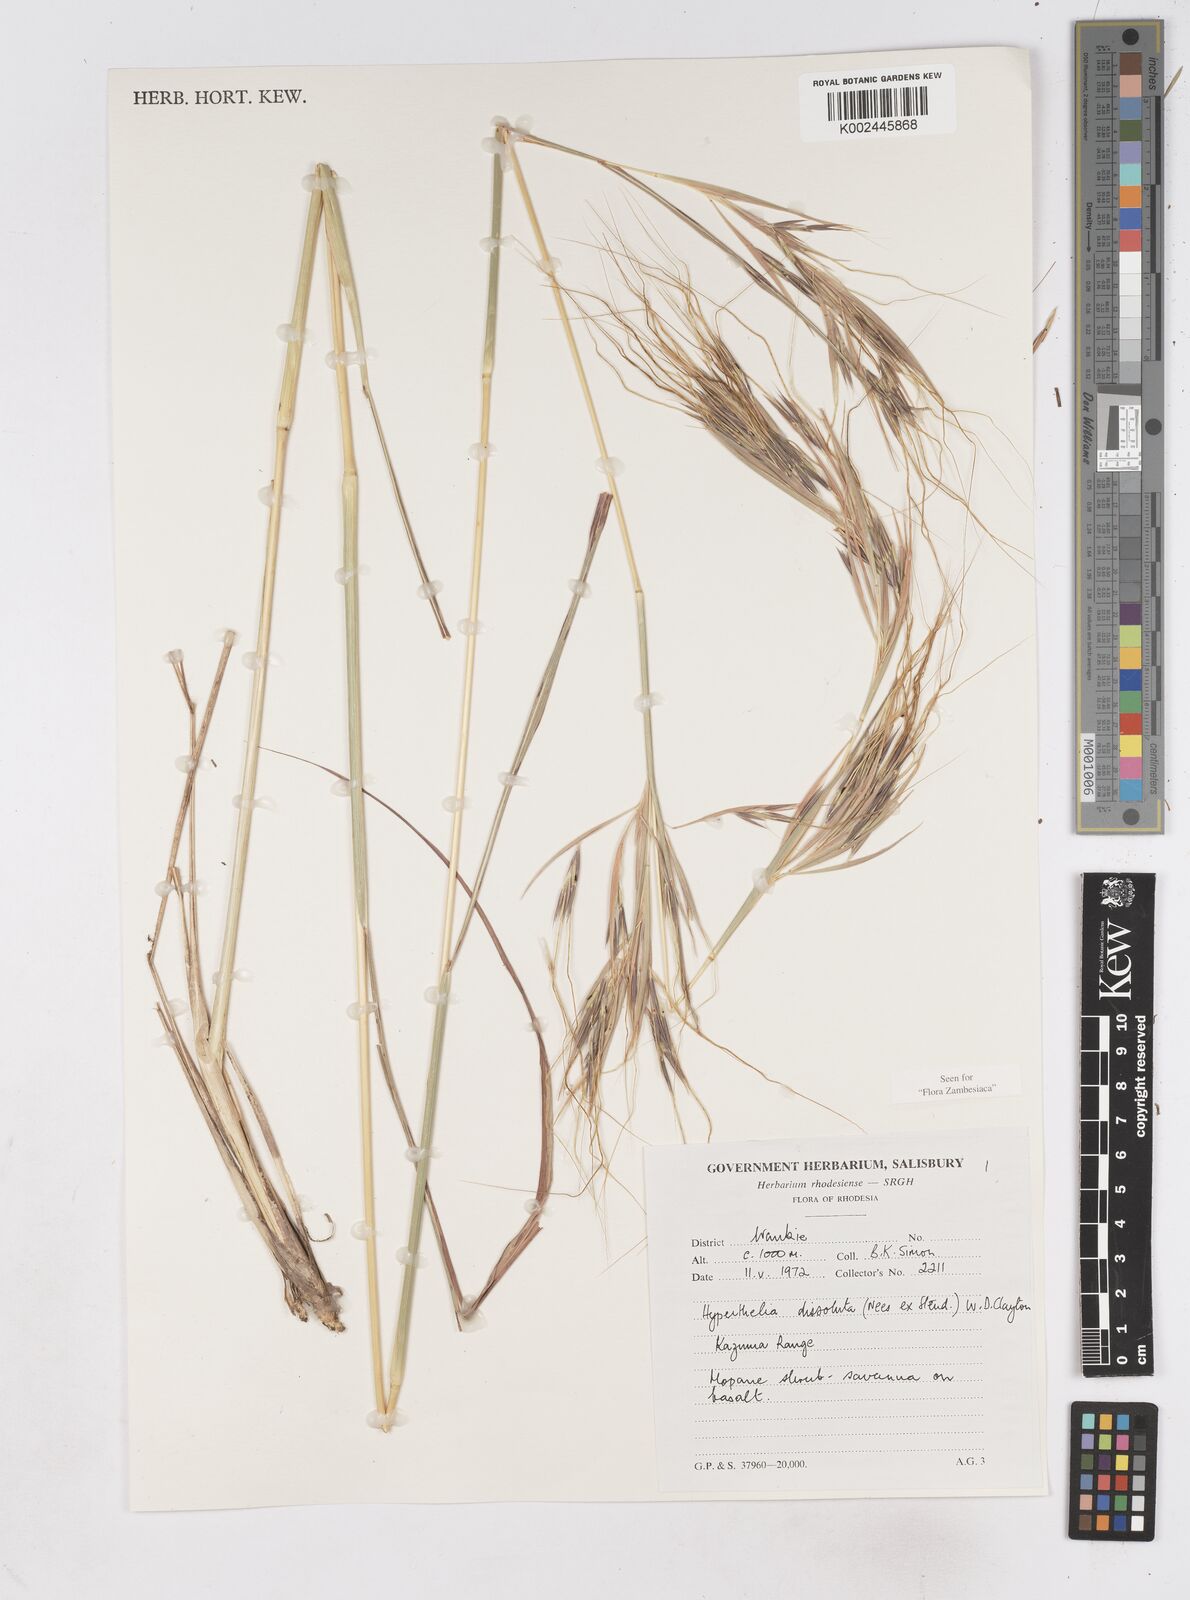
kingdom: Plantae
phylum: Tracheophyta
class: Liliopsida
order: Poales
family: Poaceae
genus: Hyperthelia
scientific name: Hyperthelia dissoluta
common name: Yellow thatching grass
